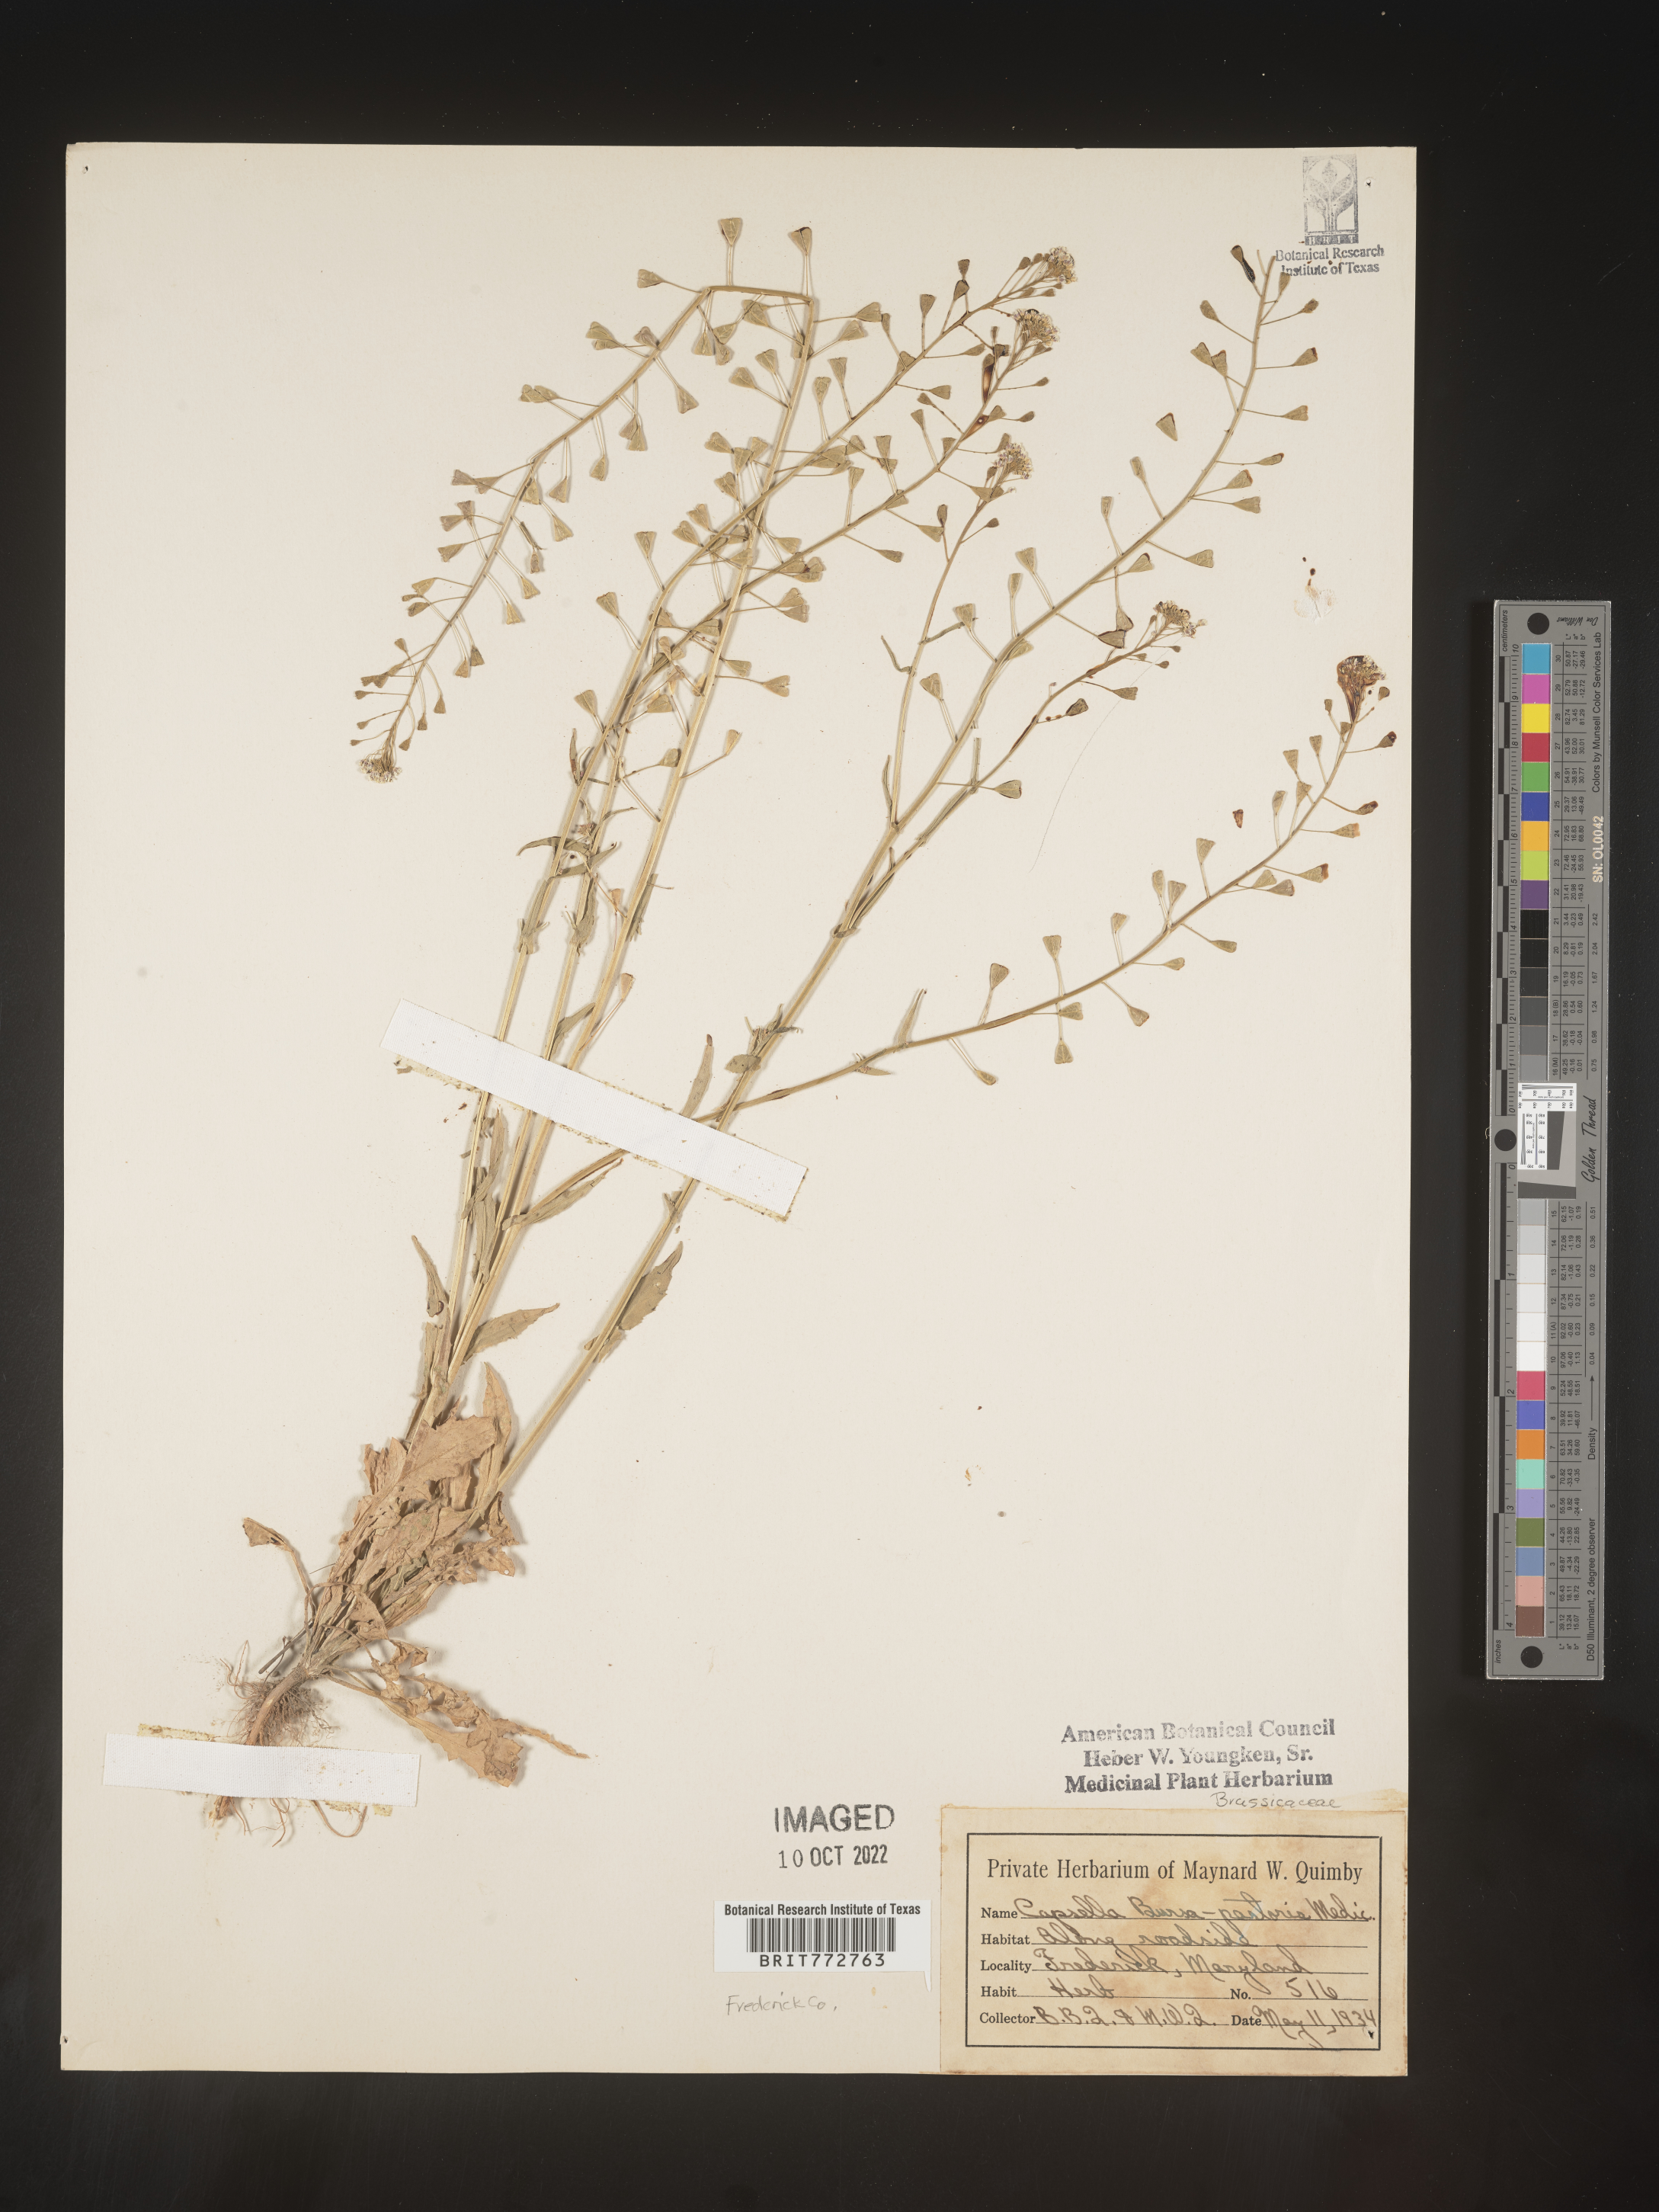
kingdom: Plantae
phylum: Tracheophyta
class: Magnoliopsida
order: Brassicales
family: Brassicaceae
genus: Capsella
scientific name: Capsella bursa-pastoris
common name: Shepherd's purse
